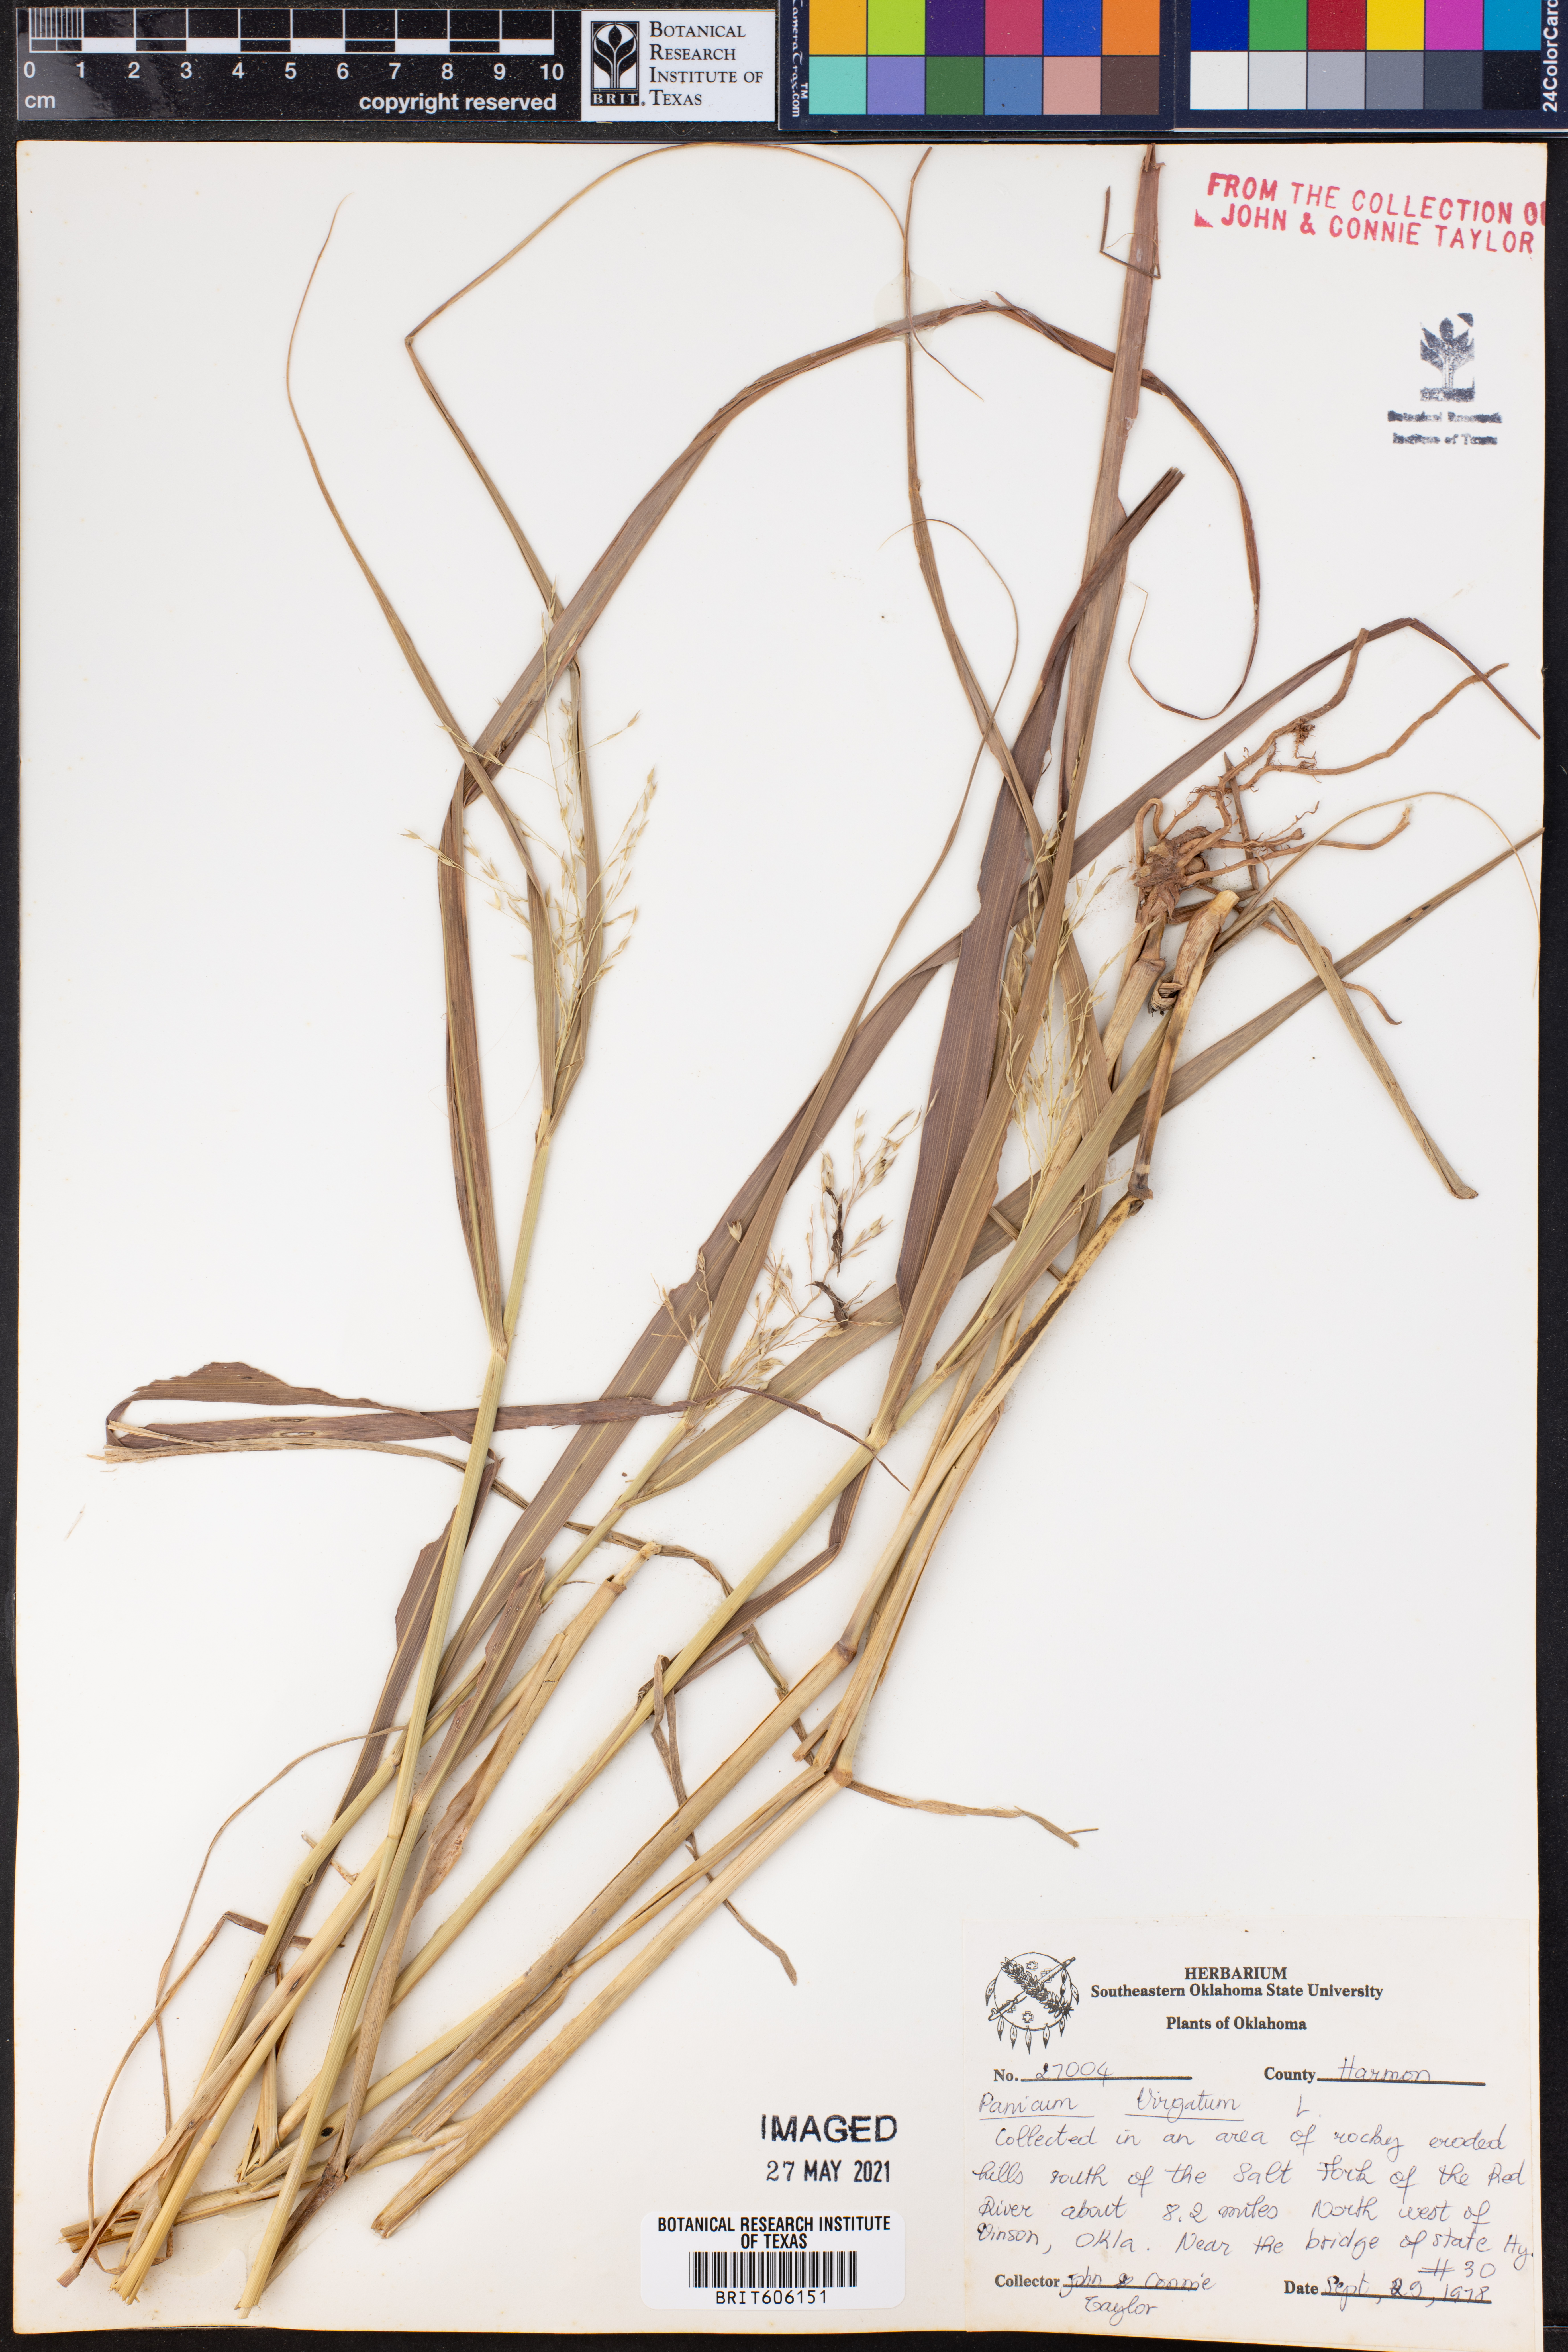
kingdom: Plantae
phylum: Tracheophyta
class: Liliopsida
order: Poales
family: Poaceae
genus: Panicum
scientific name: Panicum virgatum
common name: Switchgrass
